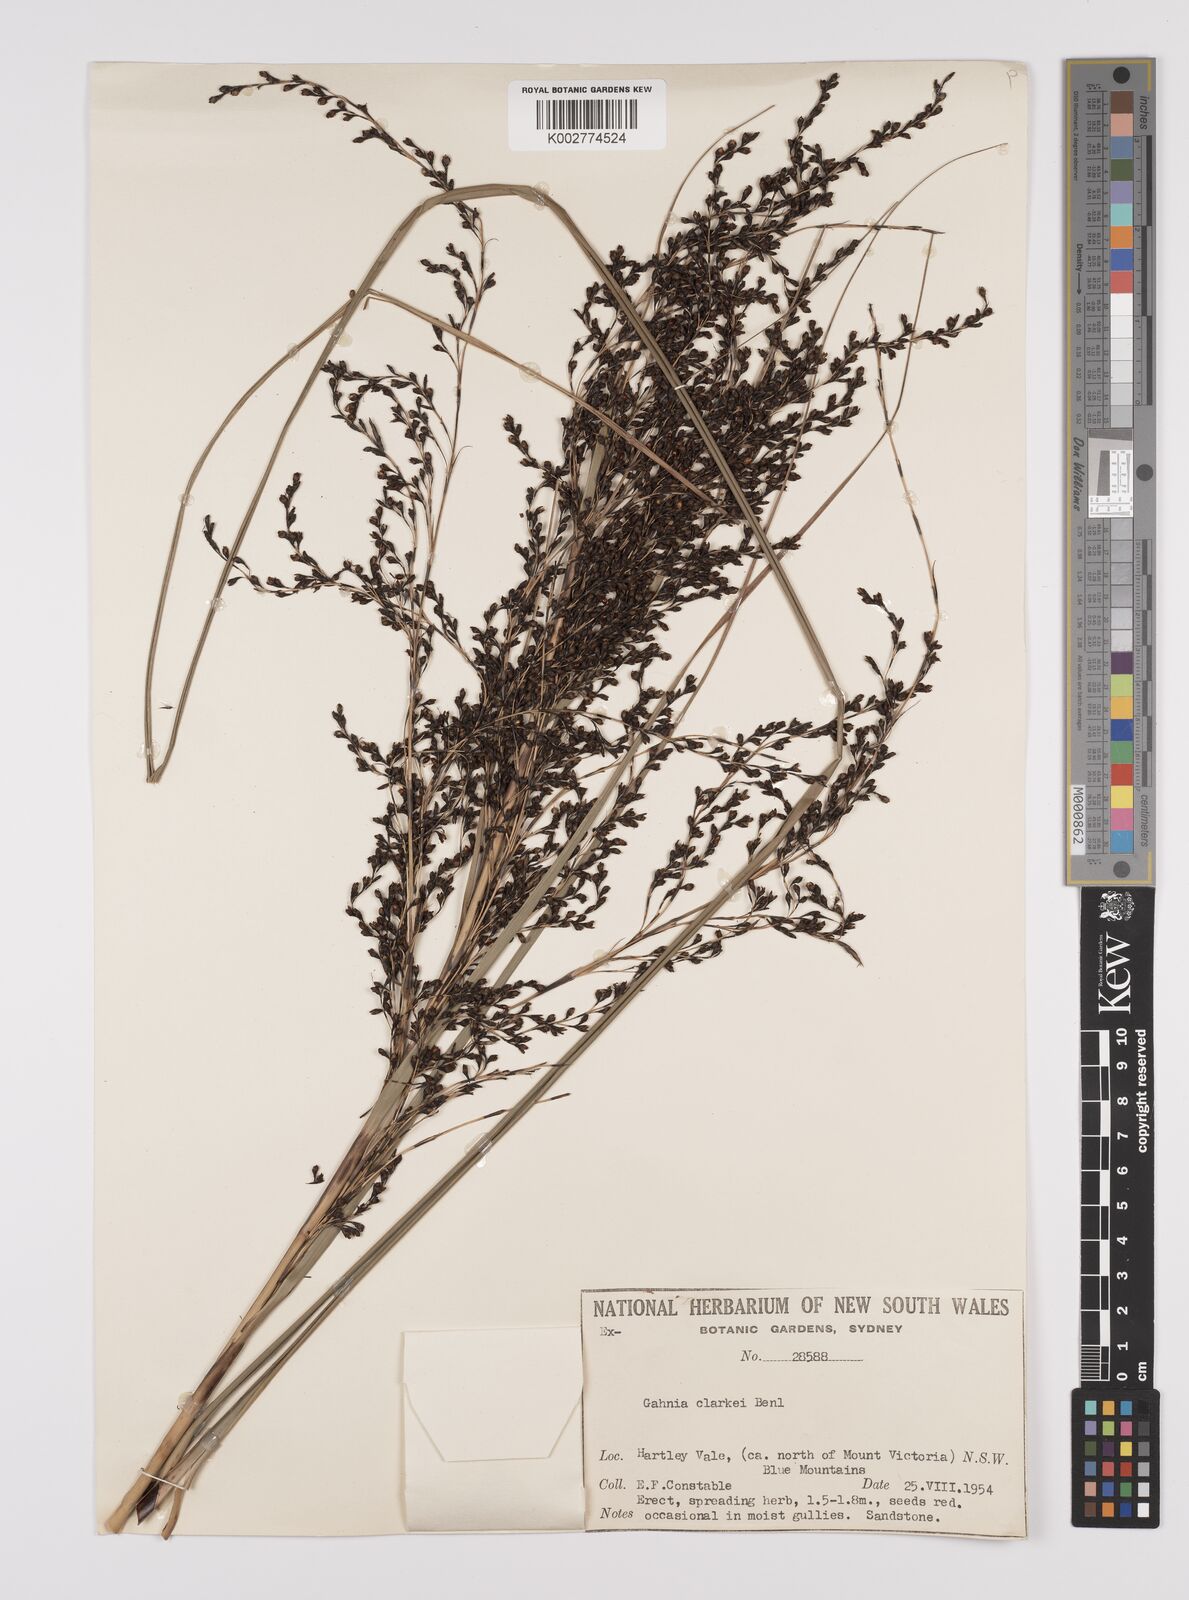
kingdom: Plantae
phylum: Tracheophyta
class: Liliopsida
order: Poales
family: Cyperaceae
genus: Gahnia
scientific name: Gahnia clarkei
